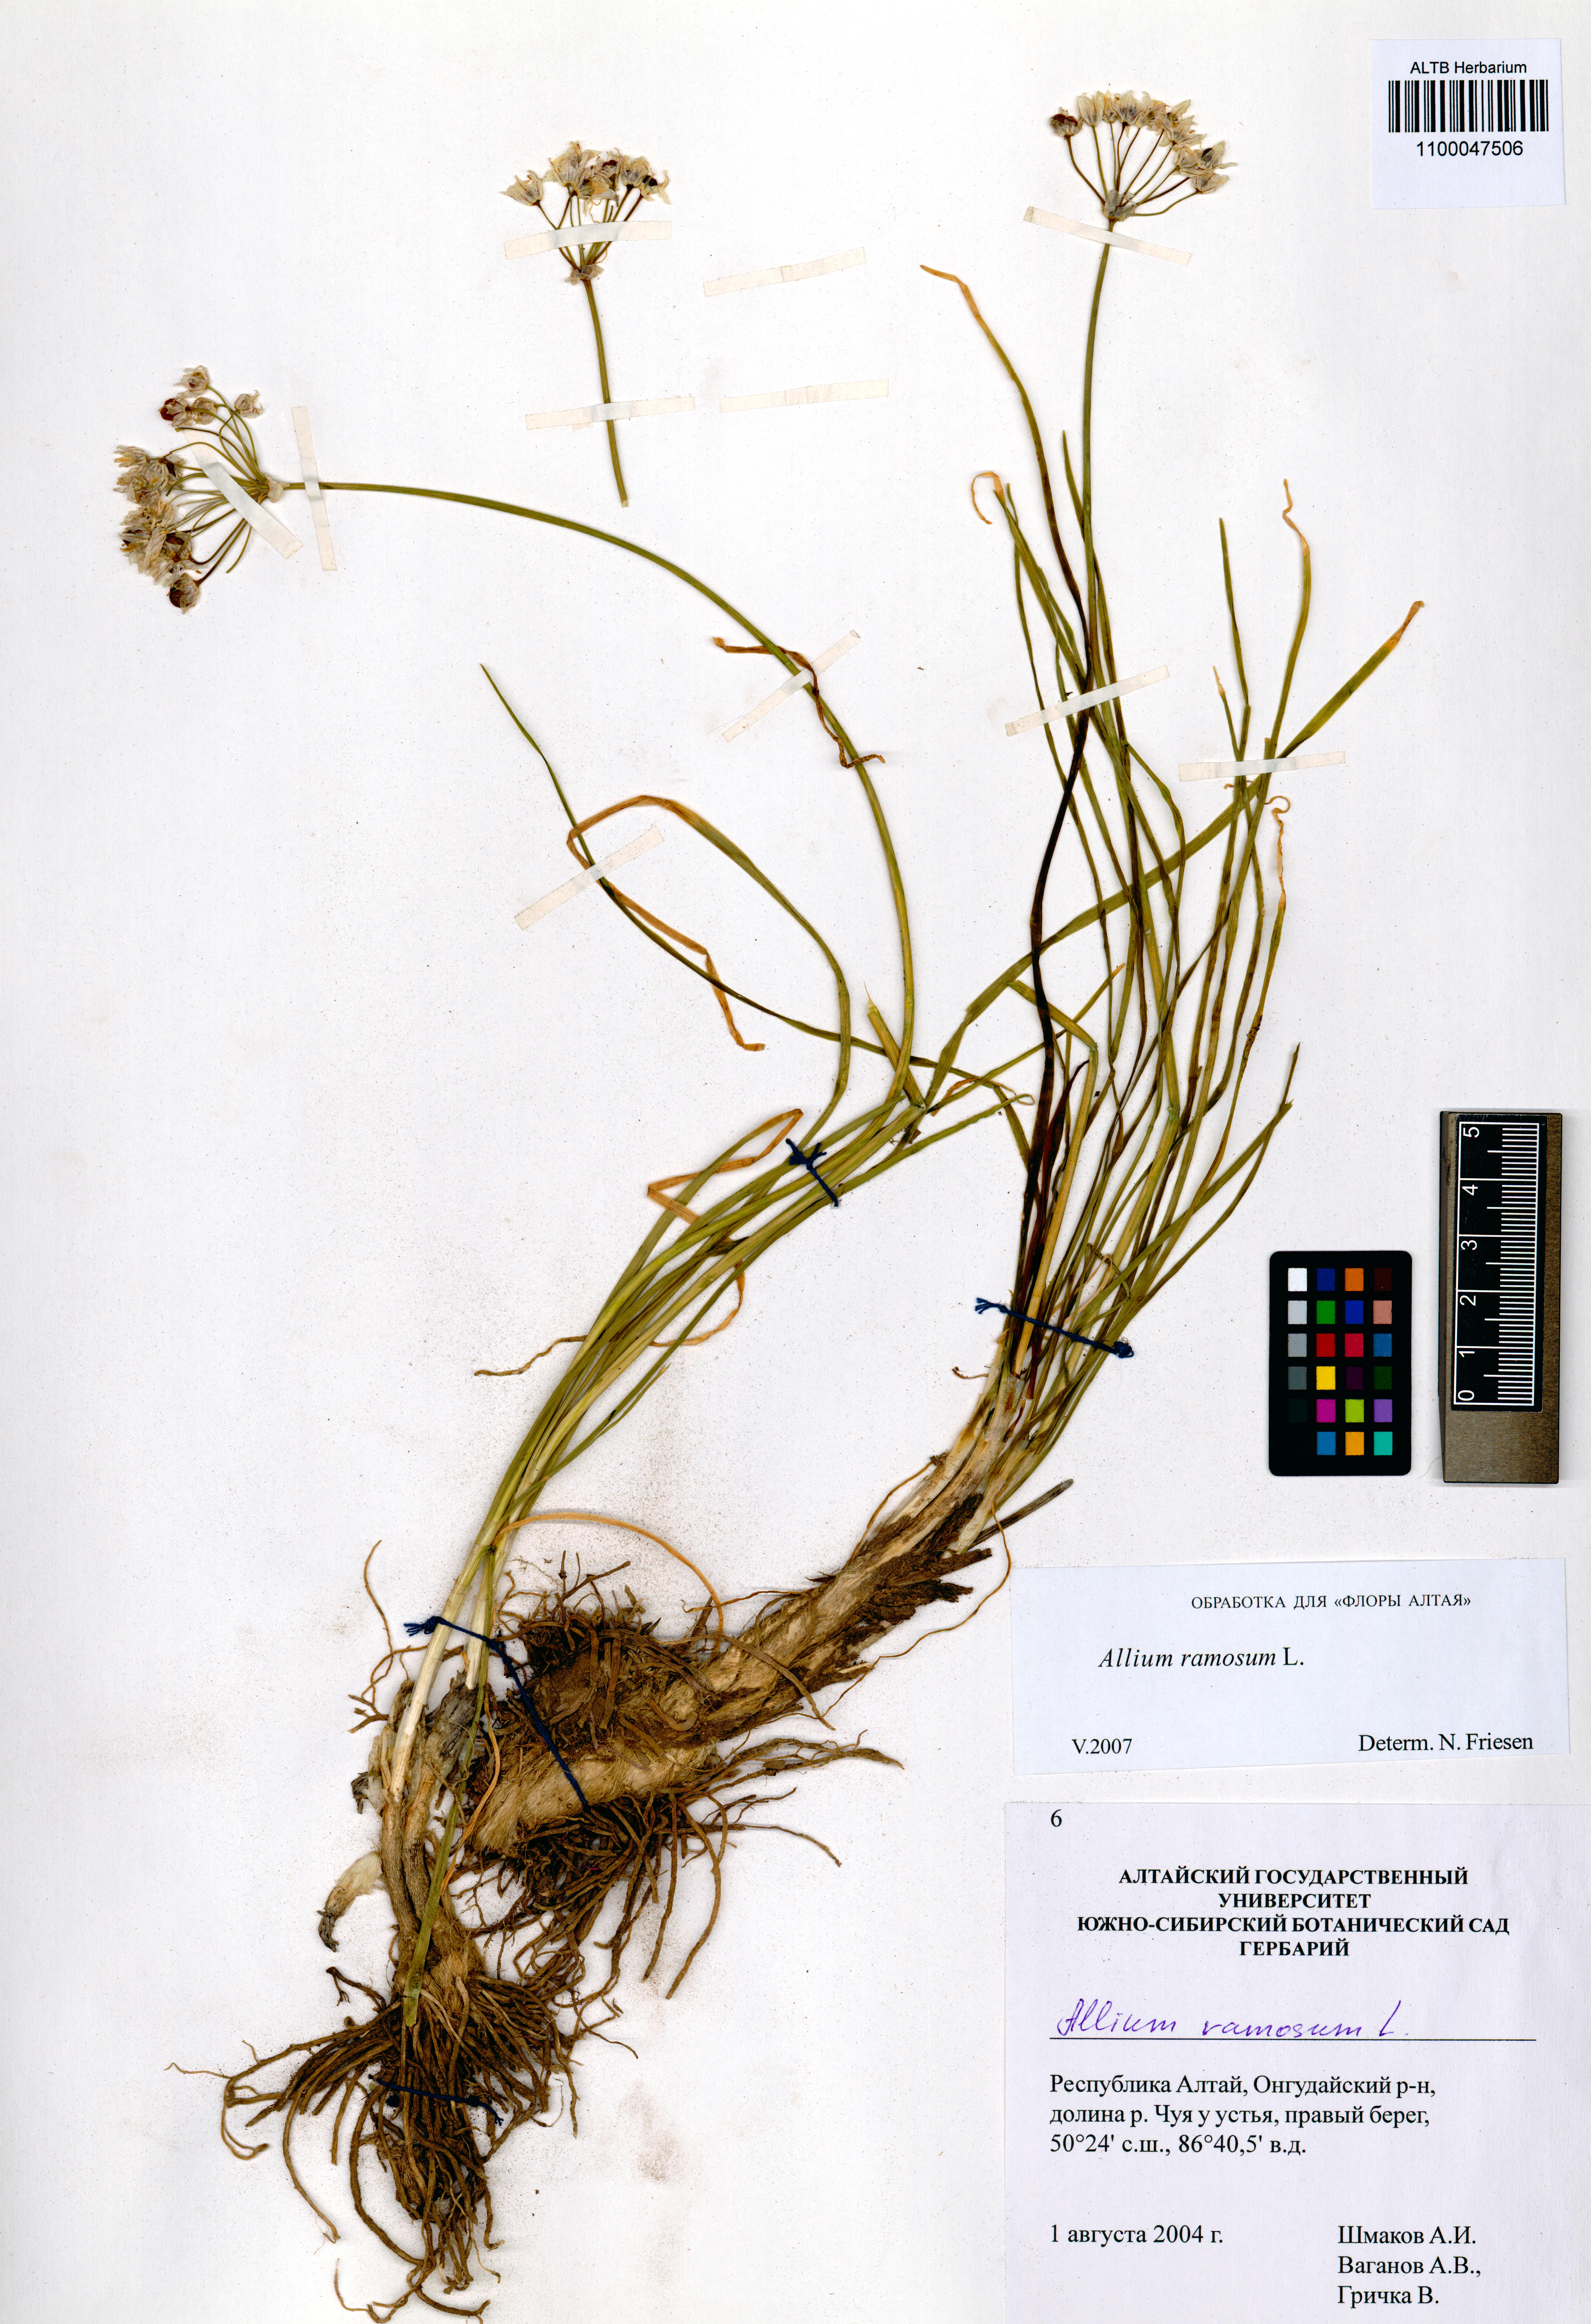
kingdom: Plantae
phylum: Tracheophyta
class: Liliopsida
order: Asparagales
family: Amaryllidaceae
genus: Allium
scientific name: Allium ramosum
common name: Fragrant garlic
